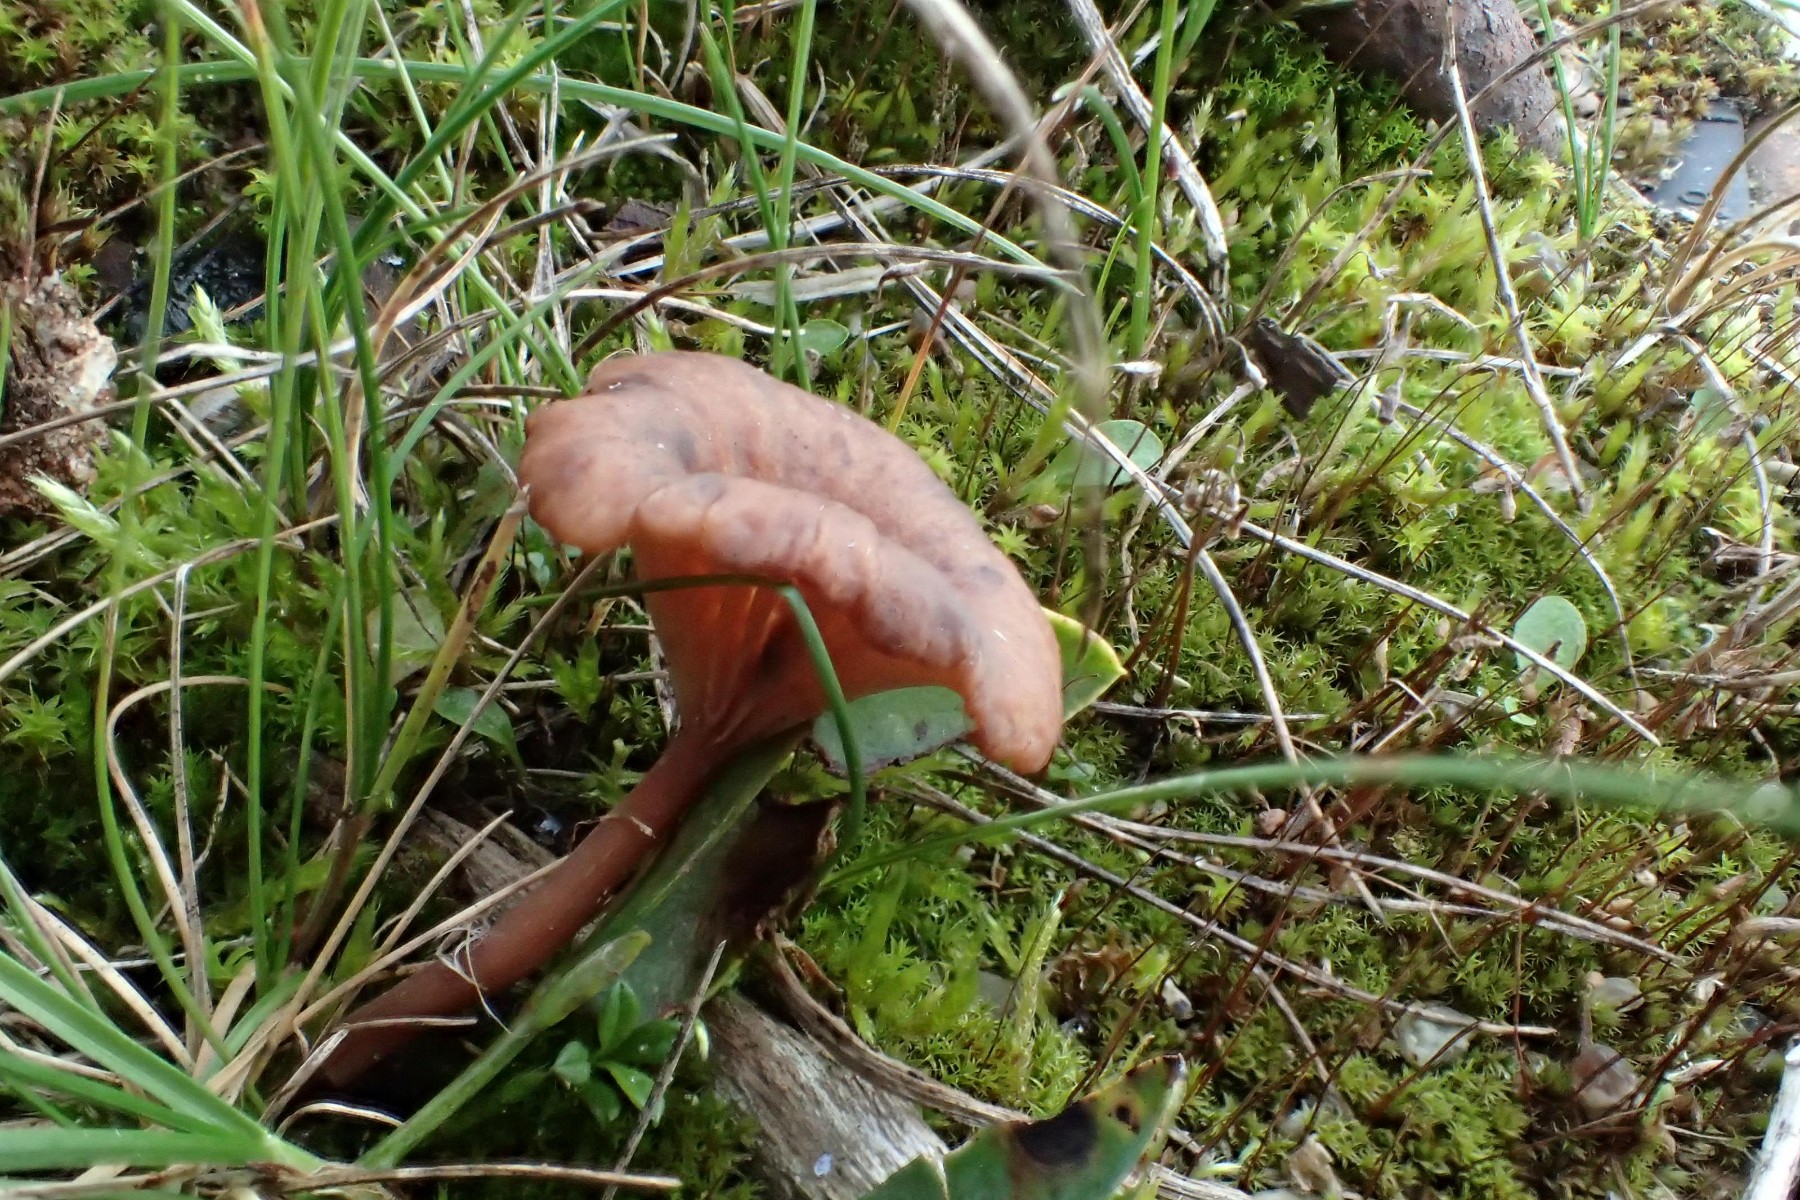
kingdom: Fungi
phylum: Basidiomycota
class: Agaricomycetes
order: Agaricales
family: Tricholomataceae
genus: Omphalina
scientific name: Omphalina pyxidata
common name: rødbrun navlehat
